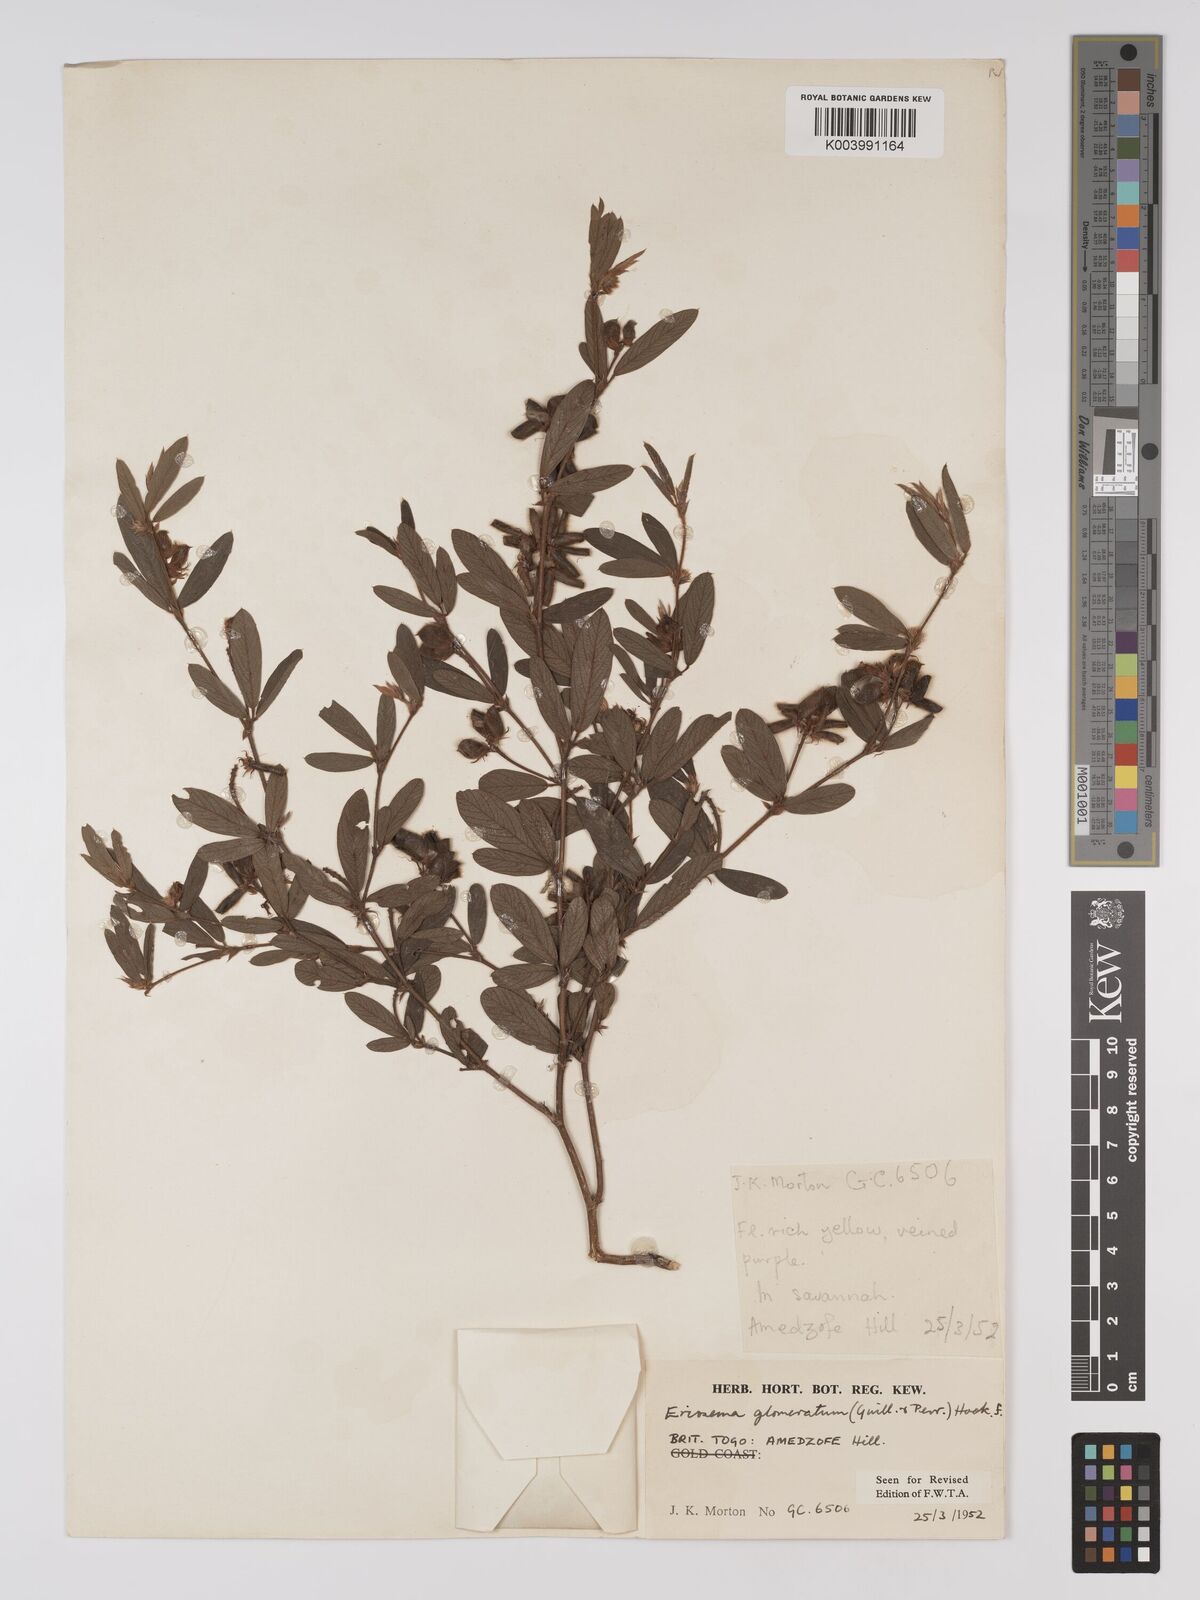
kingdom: Plantae
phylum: Tracheophyta
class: Magnoliopsida
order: Fabales
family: Fabaceae
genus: Eriosema
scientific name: Eriosema glomeratum
